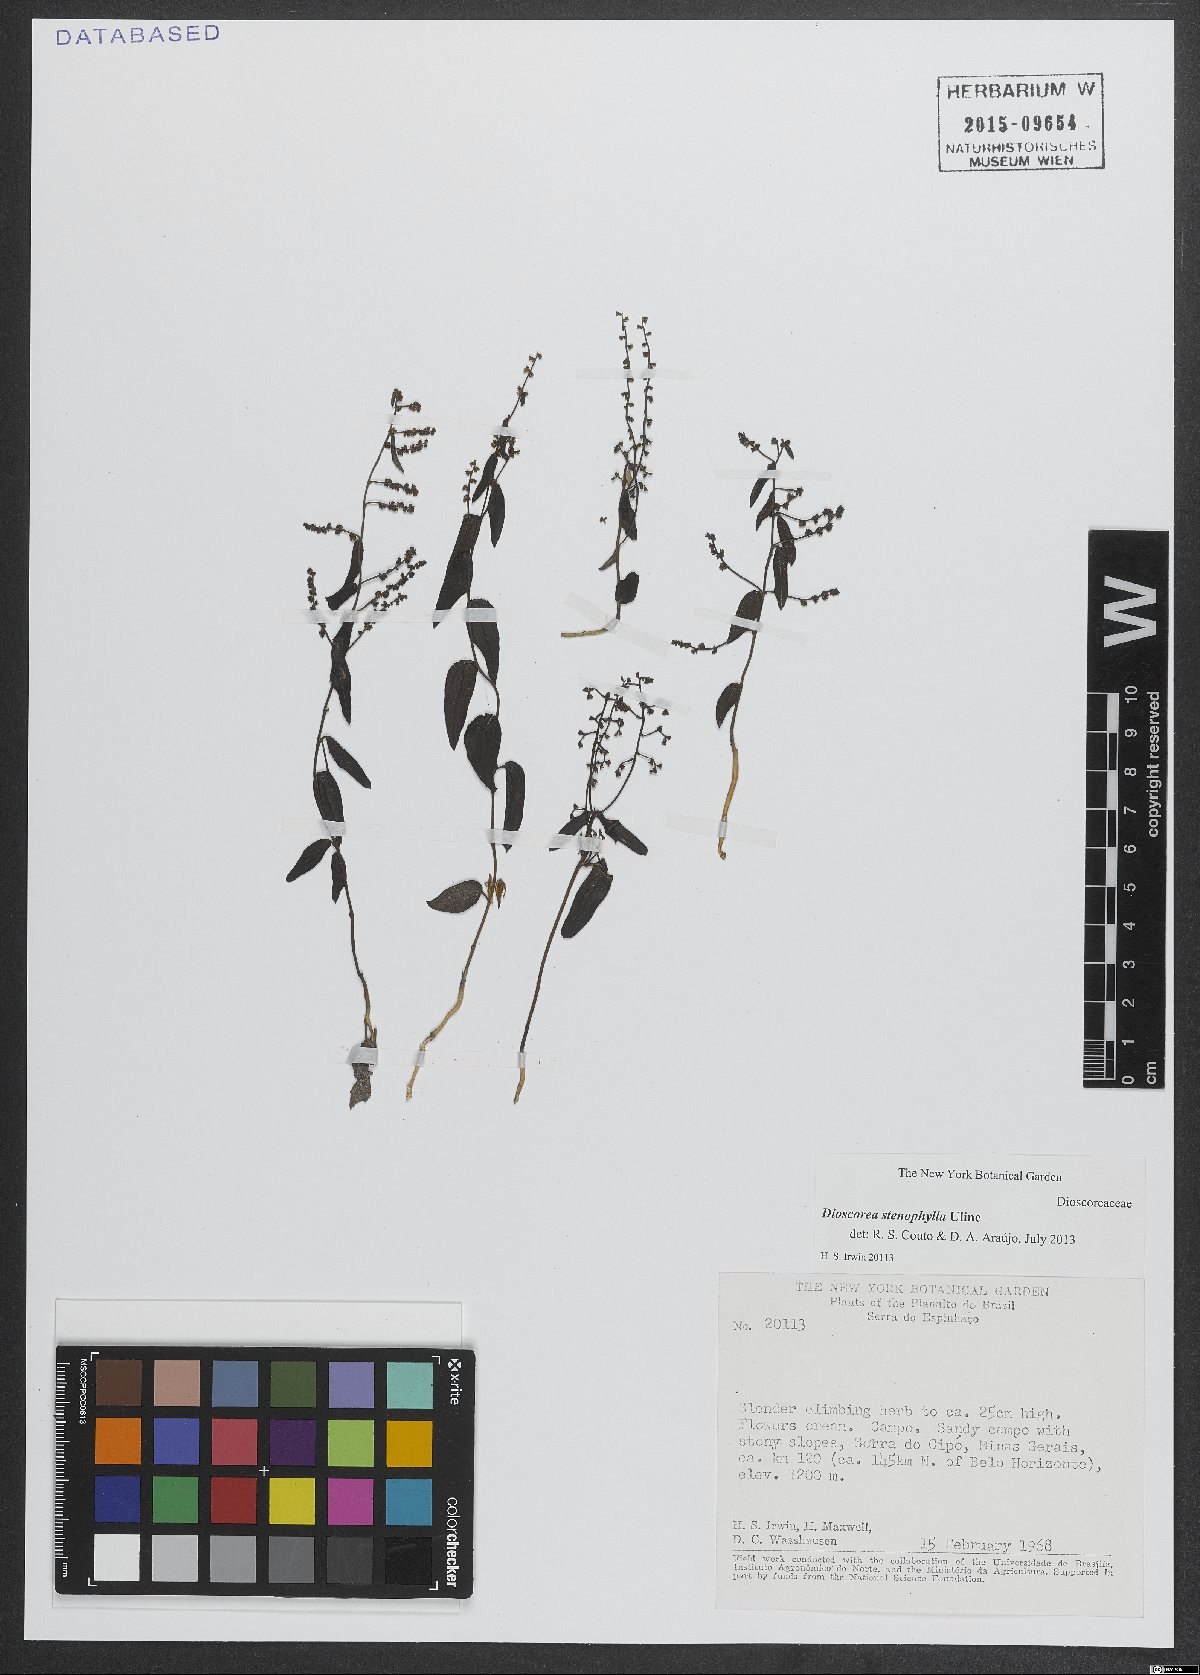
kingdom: Plantae
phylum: Tracheophyta
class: Liliopsida
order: Dioscoreales
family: Dioscoreaceae
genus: Dioscorea
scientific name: Dioscorea stenophylla
